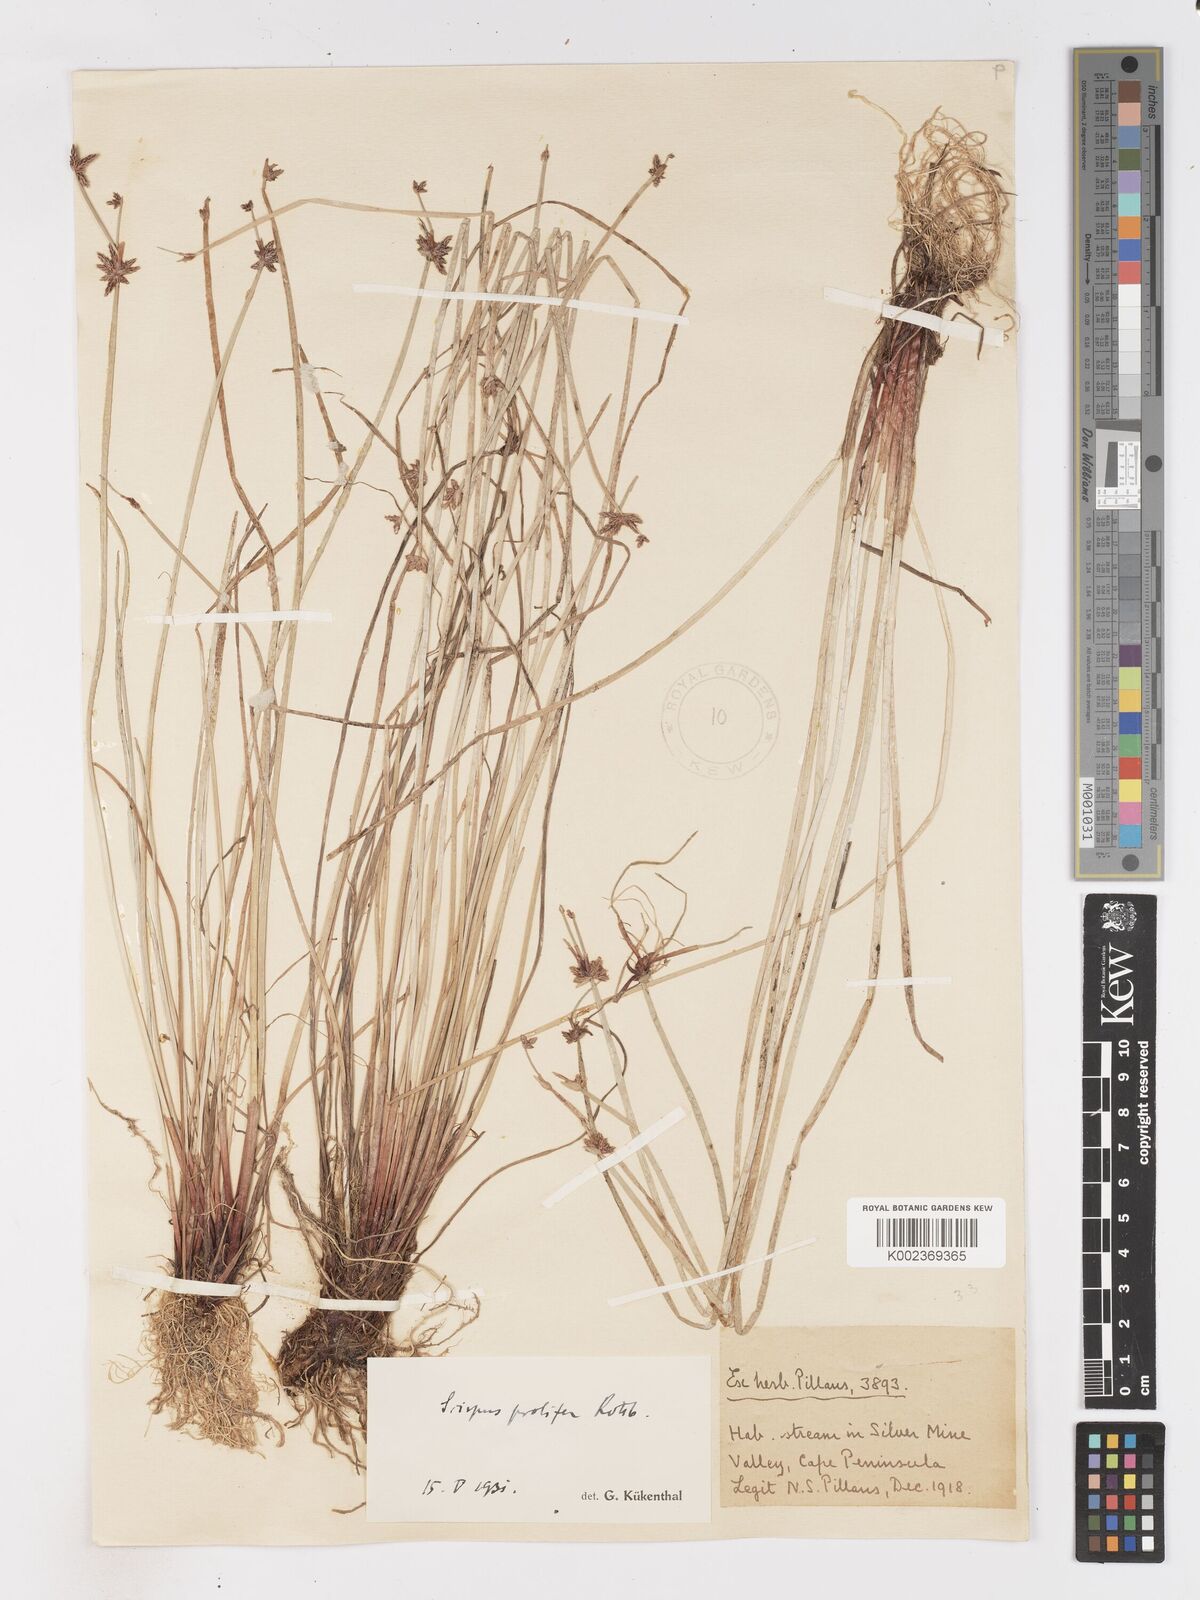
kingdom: Plantae
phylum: Tracheophyta
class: Liliopsida
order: Poales
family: Cyperaceae
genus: Isolepis
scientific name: Isolepis prolifera
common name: Proliferating bulrush
